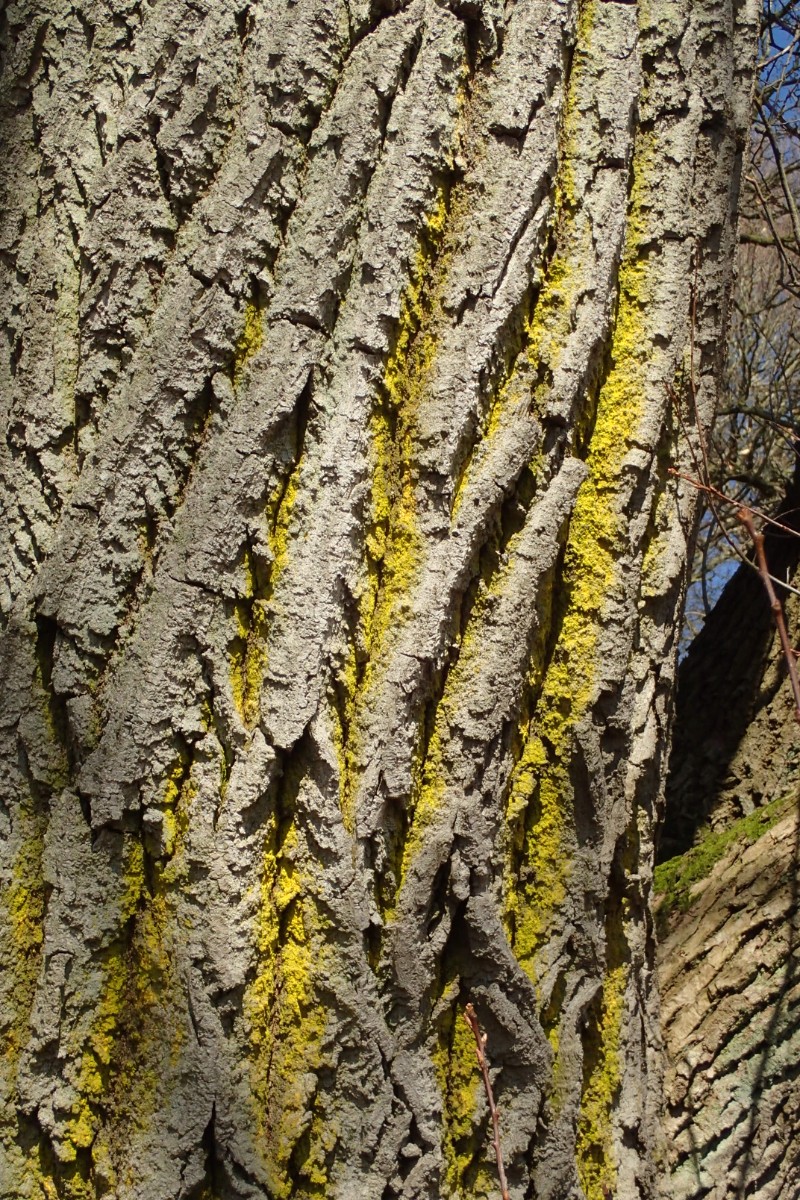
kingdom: Fungi
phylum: Ascomycota
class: Arthoniomycetes
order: Arthoniales
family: Chrysotrichaceae
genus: Chrysothrix
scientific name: Chrysothrix candelaris
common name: gul støvlav
